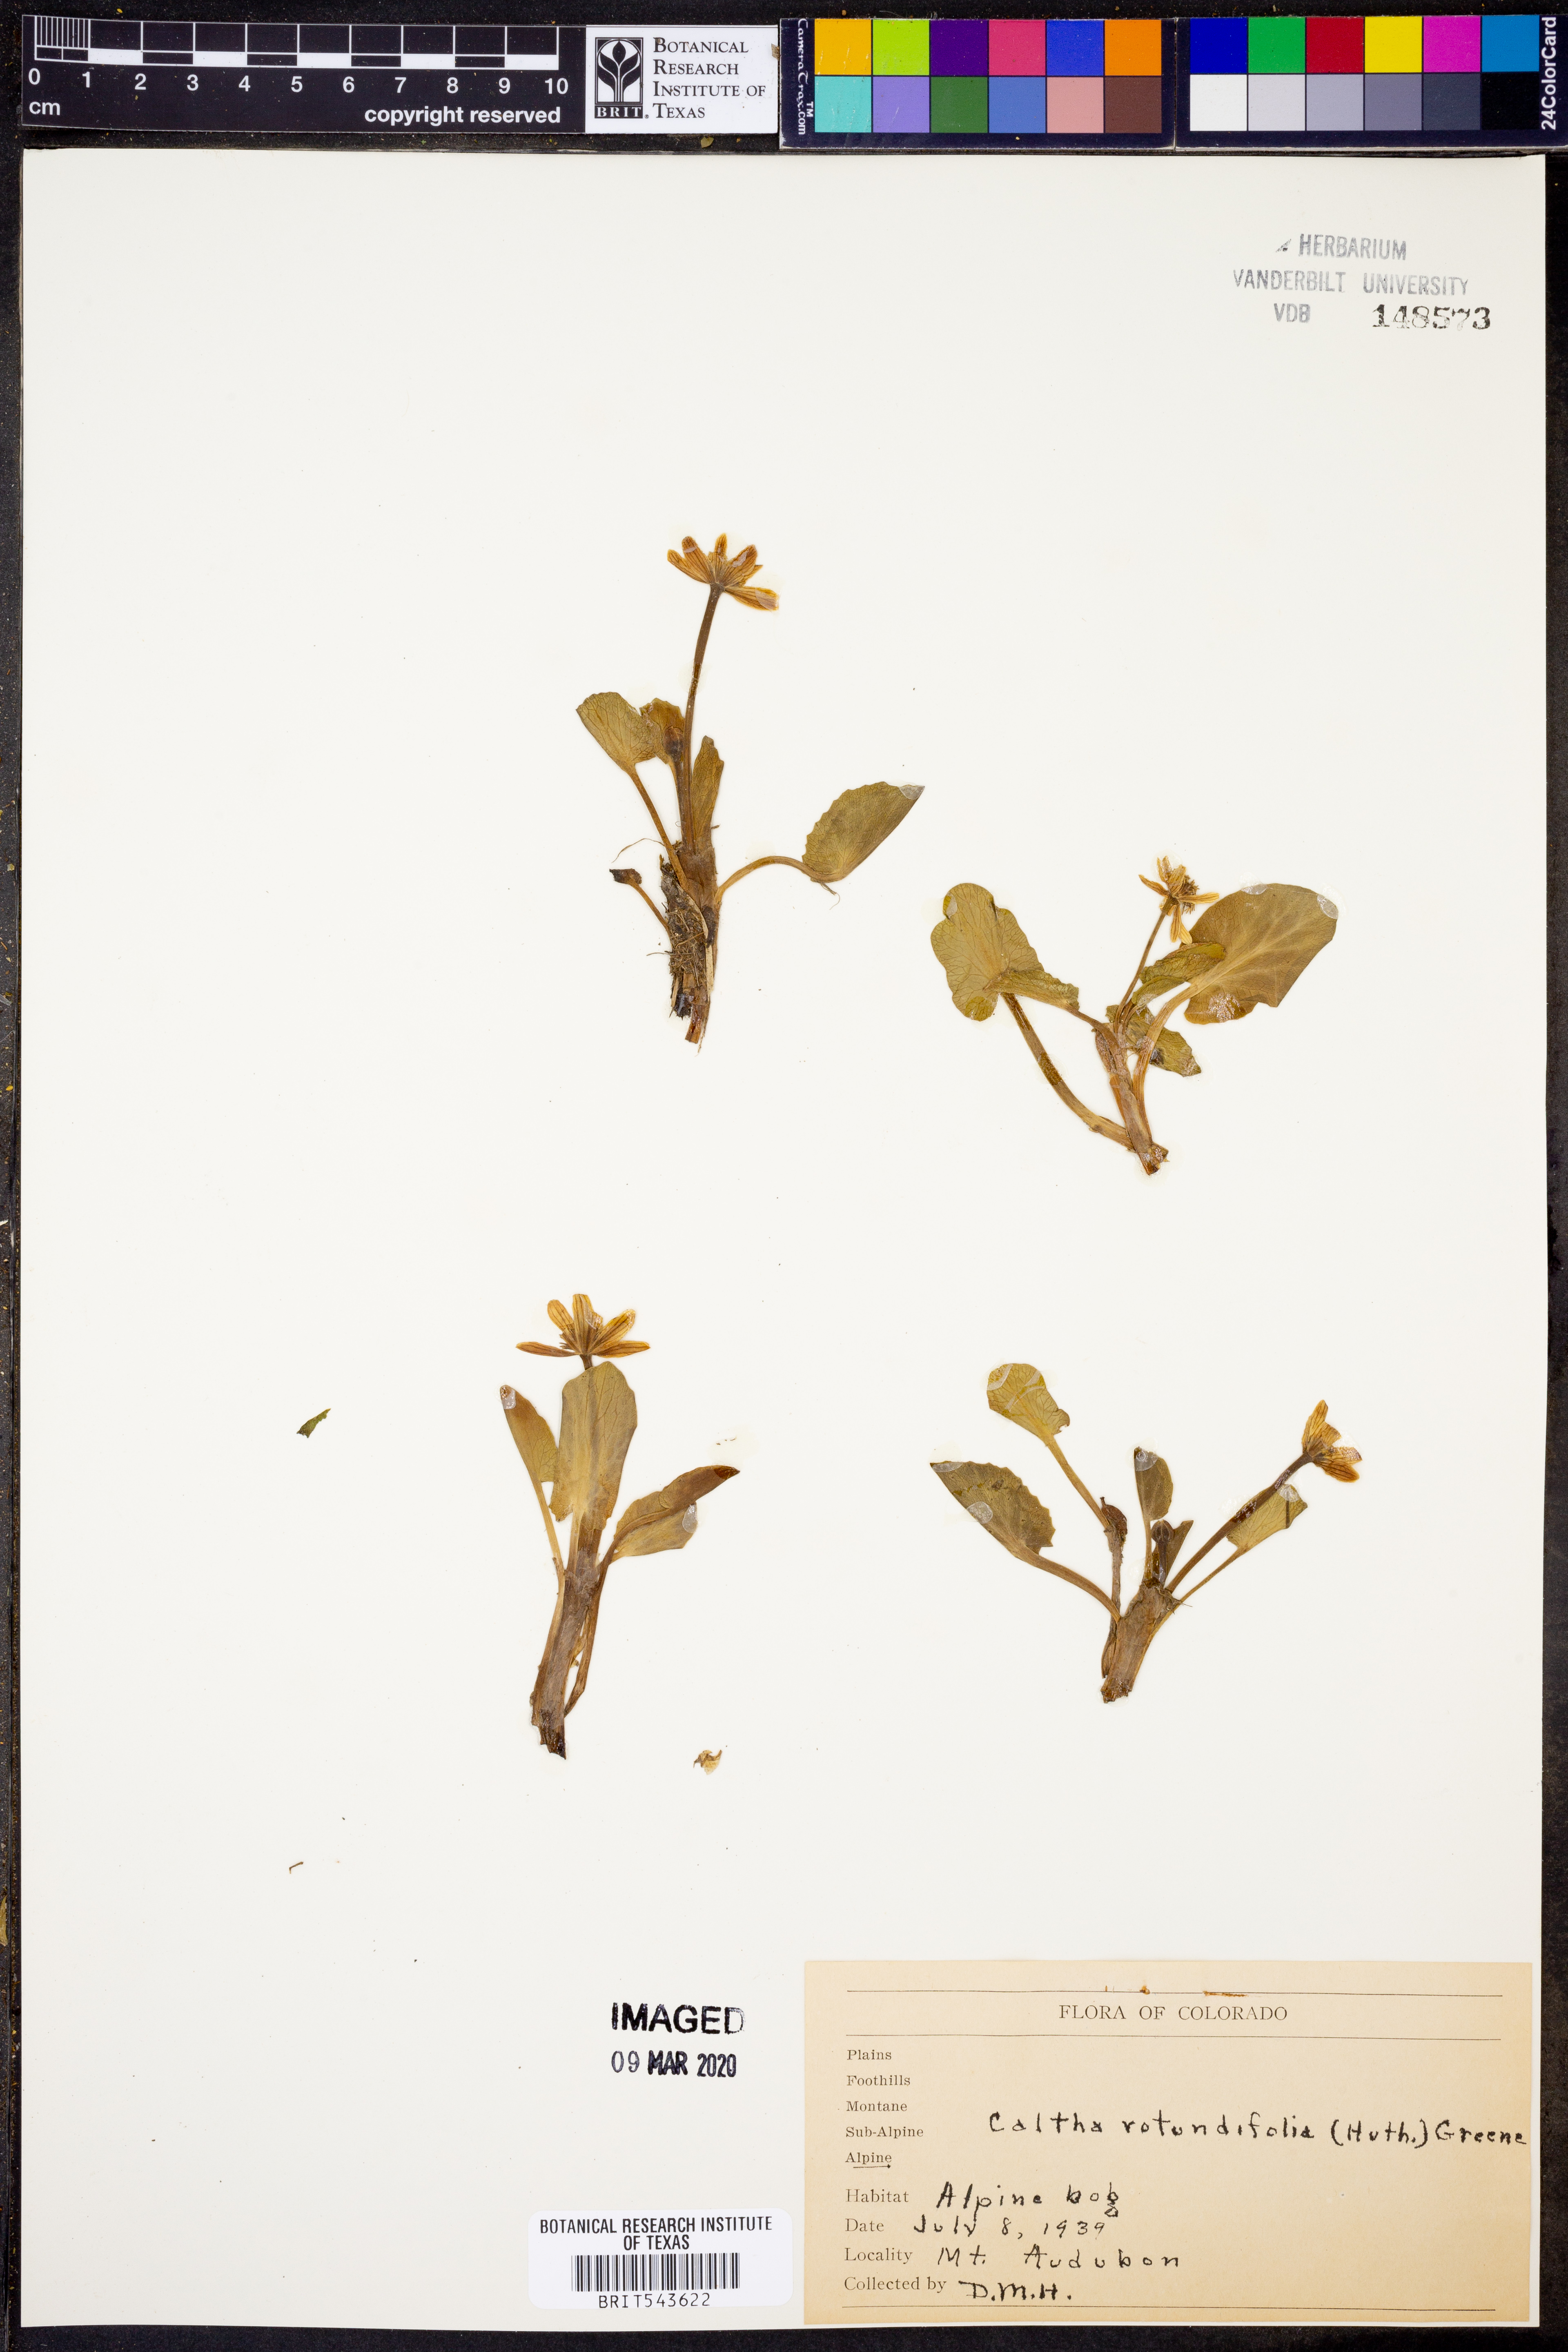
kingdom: Plantae
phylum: Tracheophyta
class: Magnoliopsida
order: Ranunculales
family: Ranunculaceae
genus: Caltha
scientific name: Caltha leptosepala
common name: Elkslip
